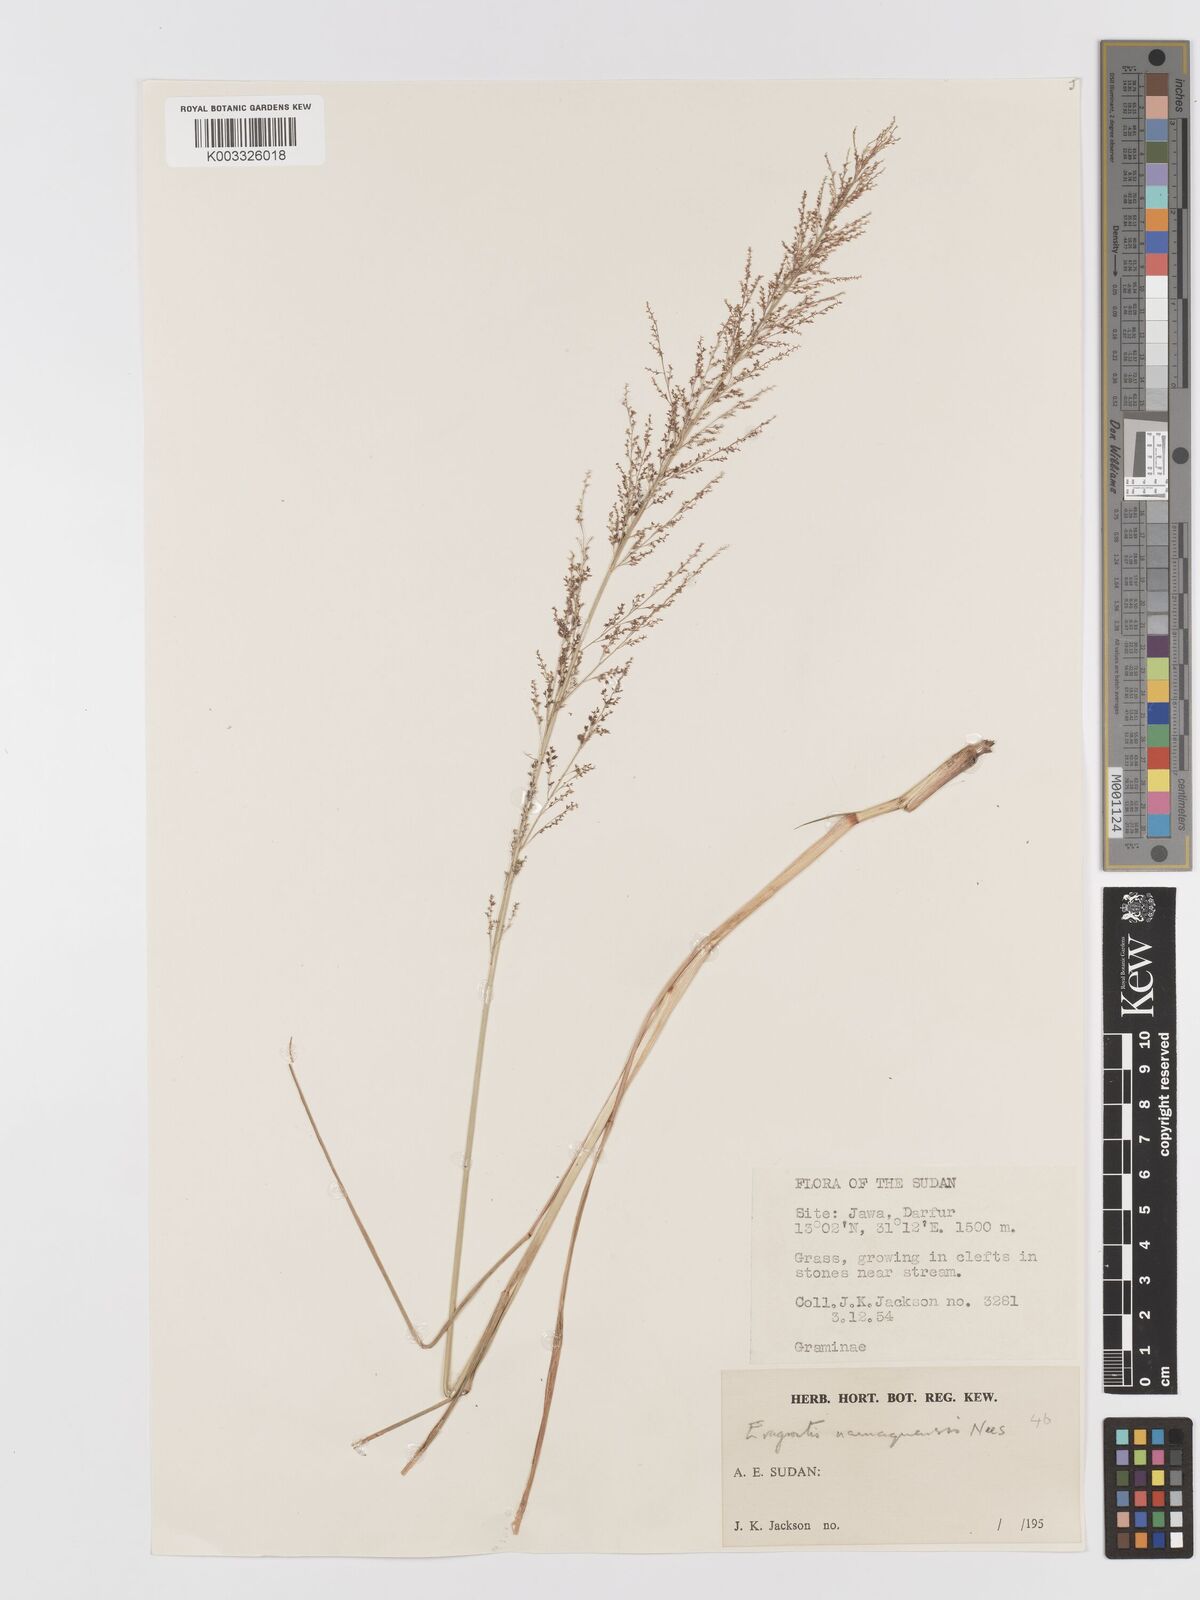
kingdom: Plantae
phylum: Tracheophyta
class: Liliopsida
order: Poales
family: Poaceae
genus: Eragrostis
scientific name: Eragrostis japonica
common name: Pond lovegrass
